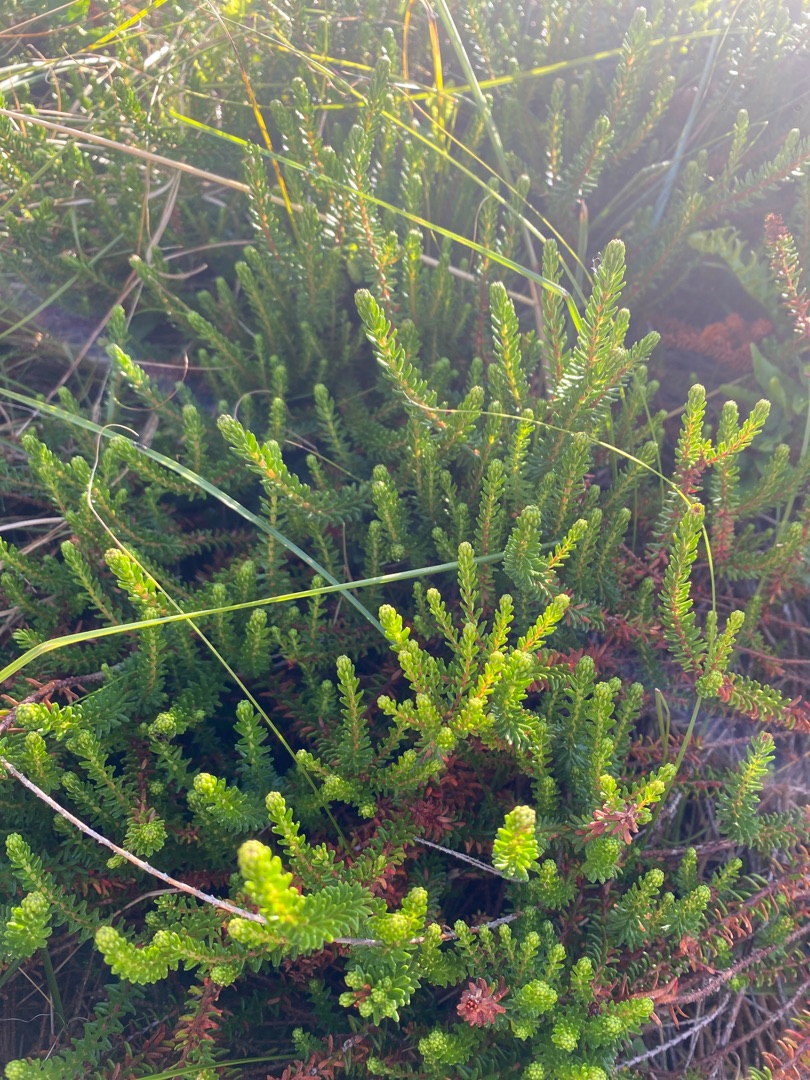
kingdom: Plantae
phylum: Tracheophyta
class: Magnoliopsida
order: Ericales
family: Ericaceae
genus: Empetrum
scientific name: Empetrum nigrum
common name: Revling
